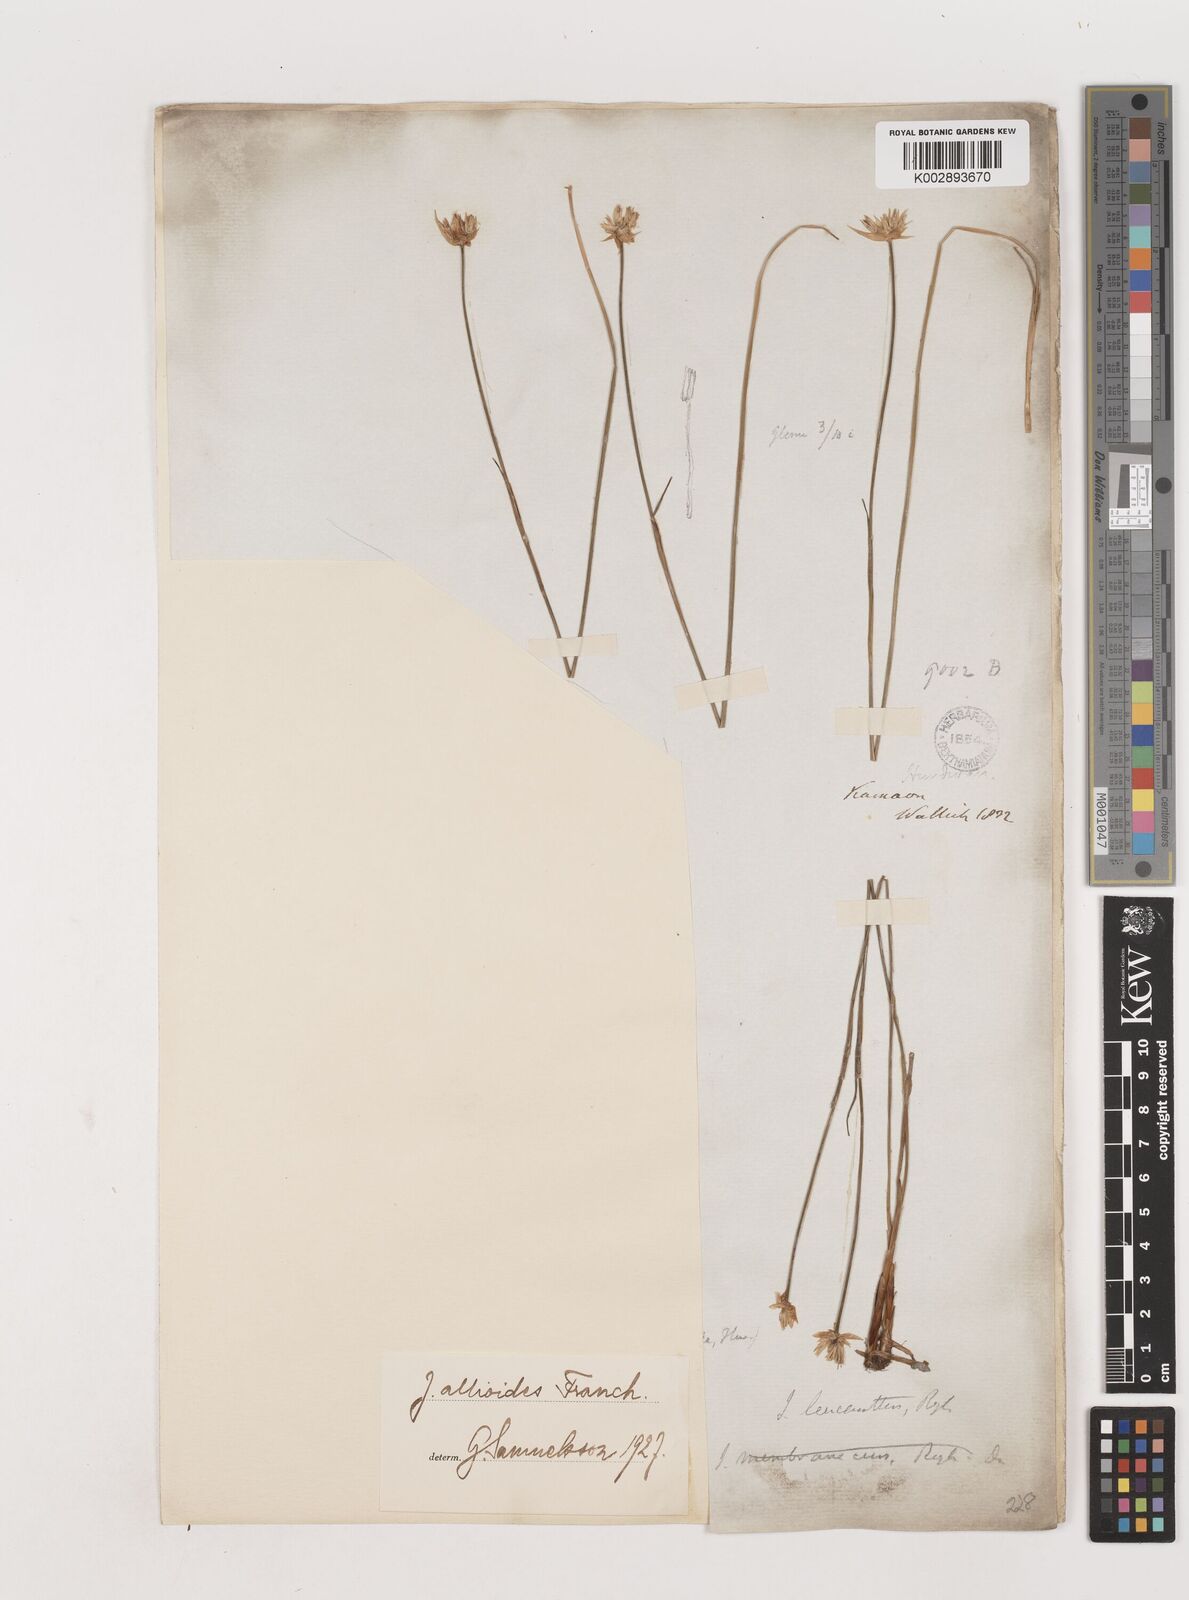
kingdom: Plantae
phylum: Tracheophyta
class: Liliopsida
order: Poales
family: Juncaceae
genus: Juncus
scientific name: Juncus allioides
